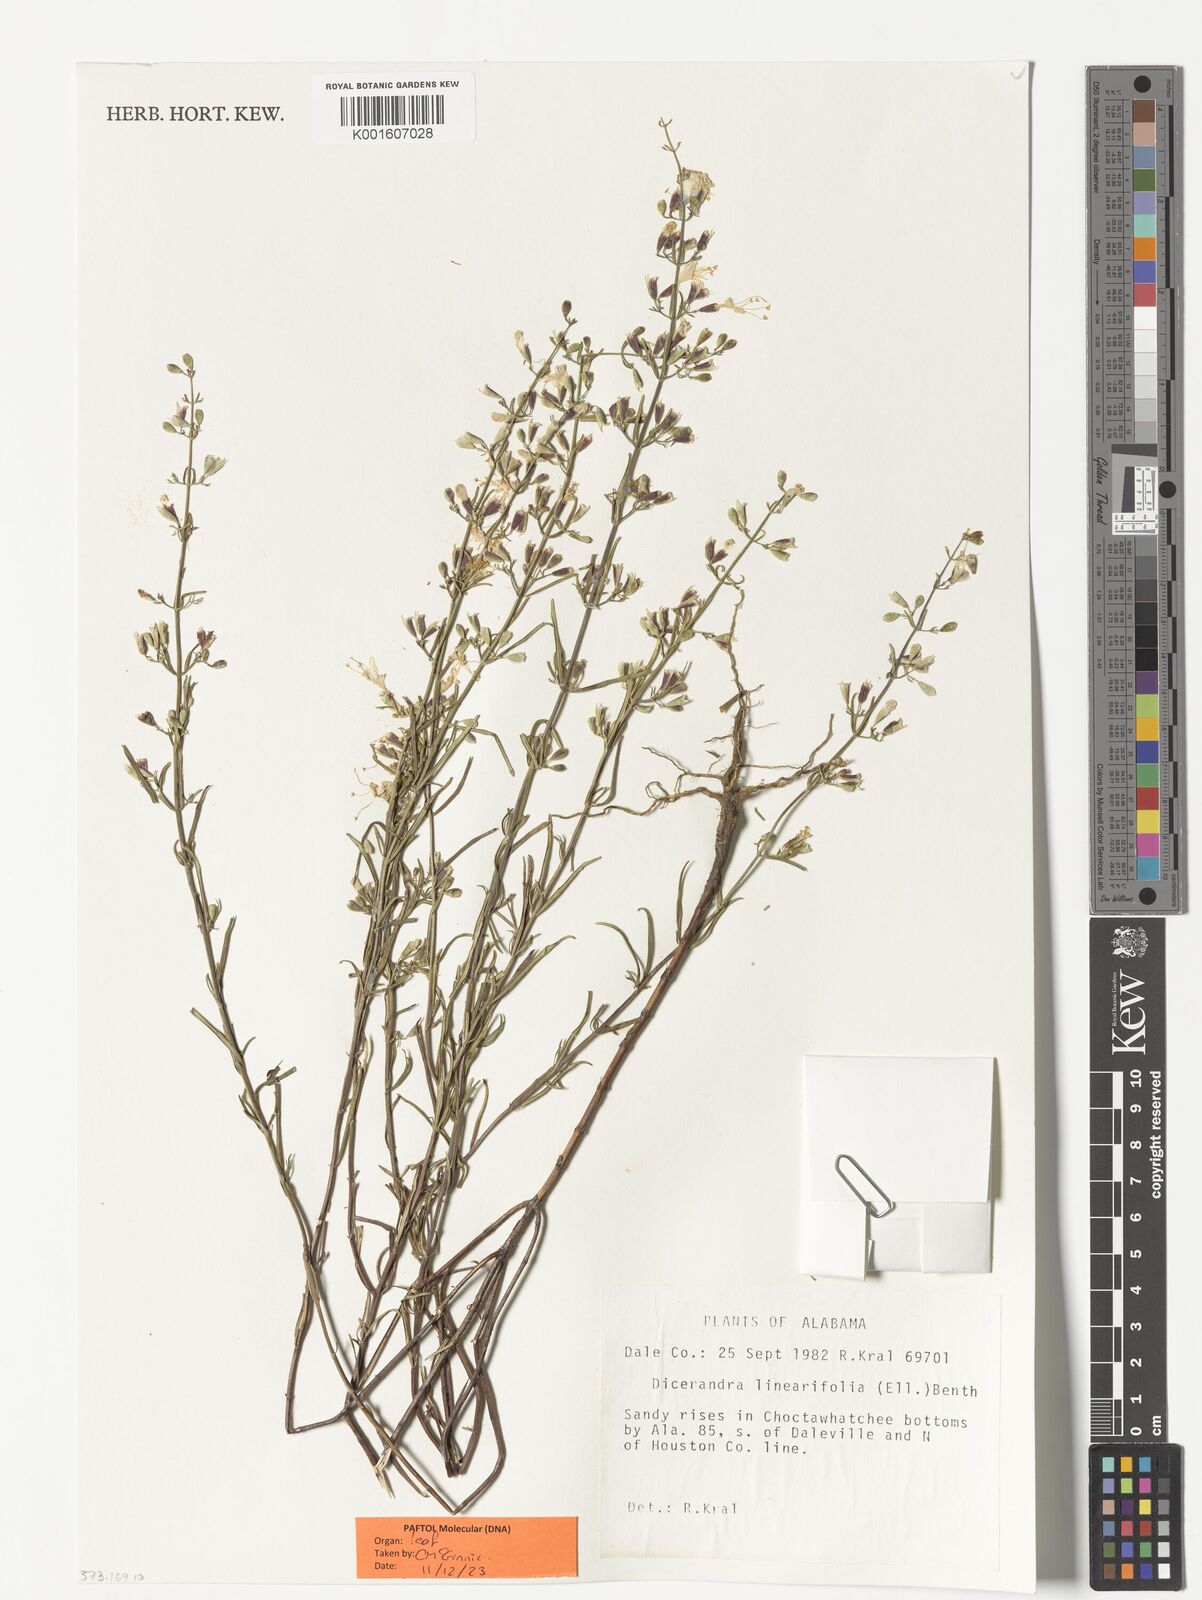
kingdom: Plantae
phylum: Tracheophyta
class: Magnoliopsida
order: Lamiales
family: Lamiaceae
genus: Dicerandra
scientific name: Dicerandra linearifolia
